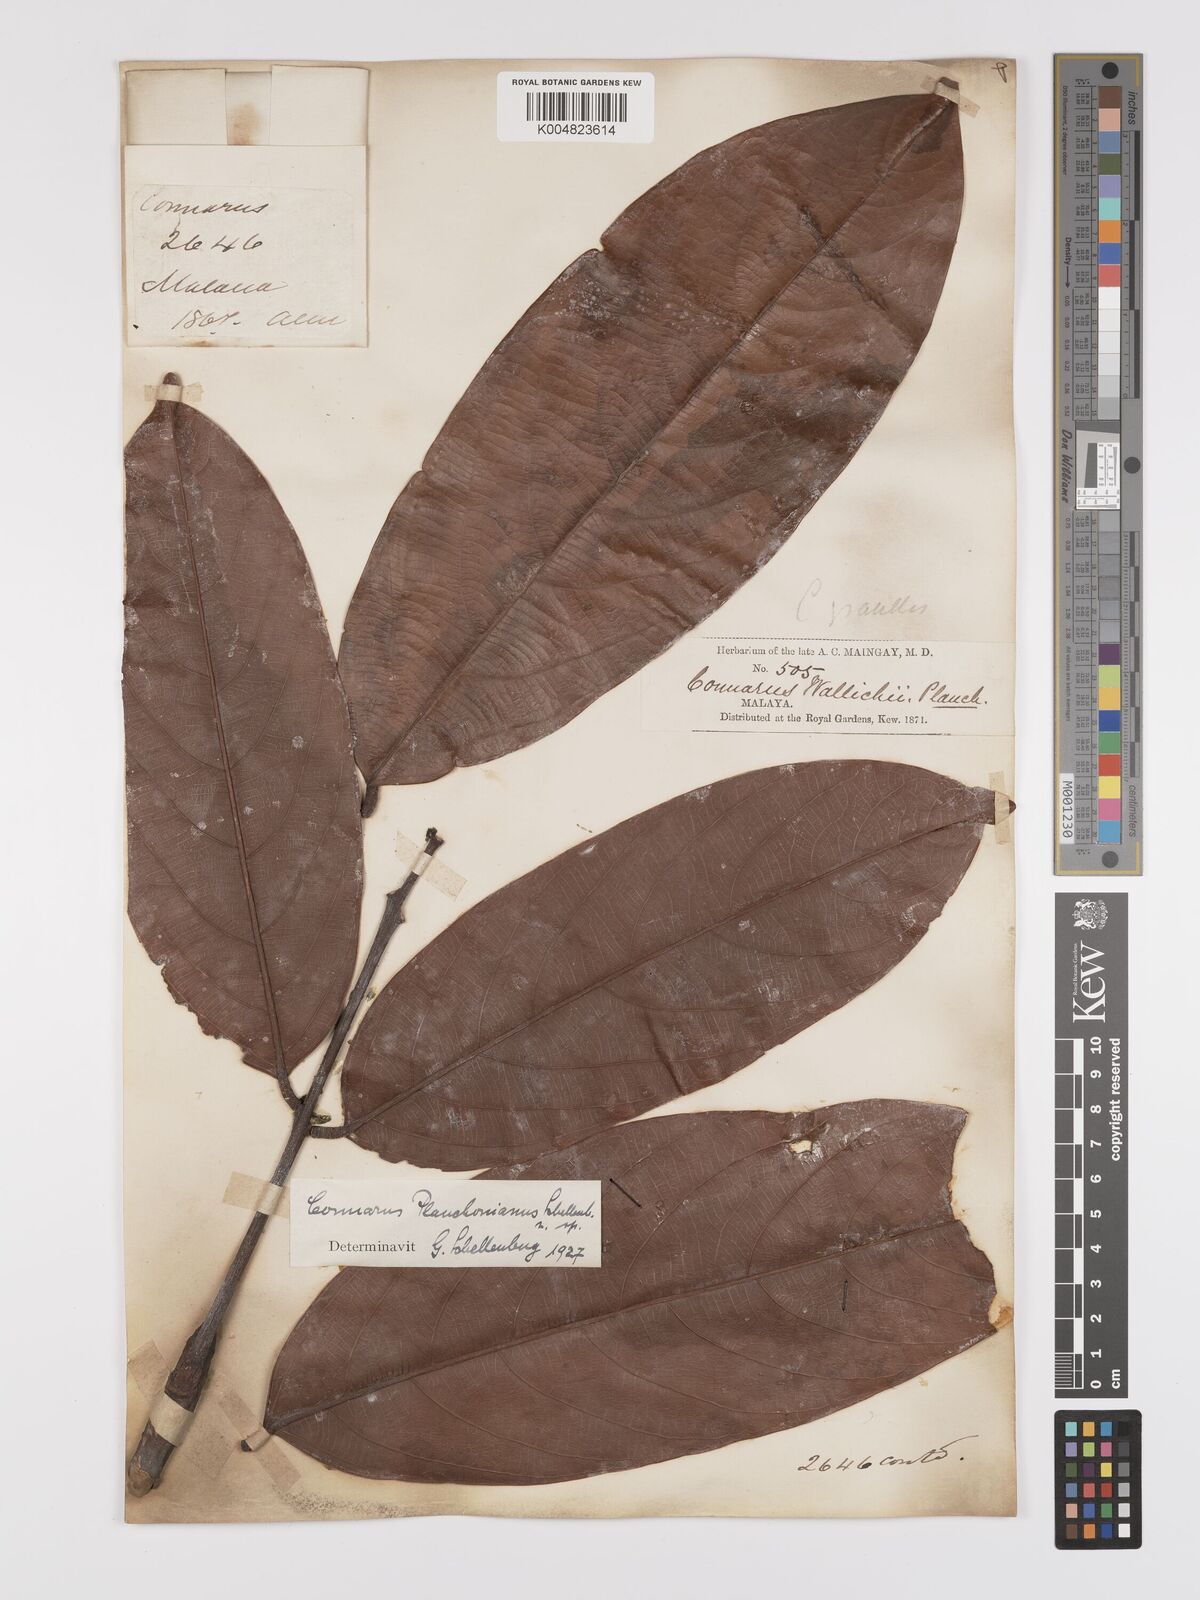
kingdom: Plantae
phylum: Tracheophyta
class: Magnoliopsida
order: Oxalidales
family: Connaraceae
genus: Connarus
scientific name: Connarus planchonianus
